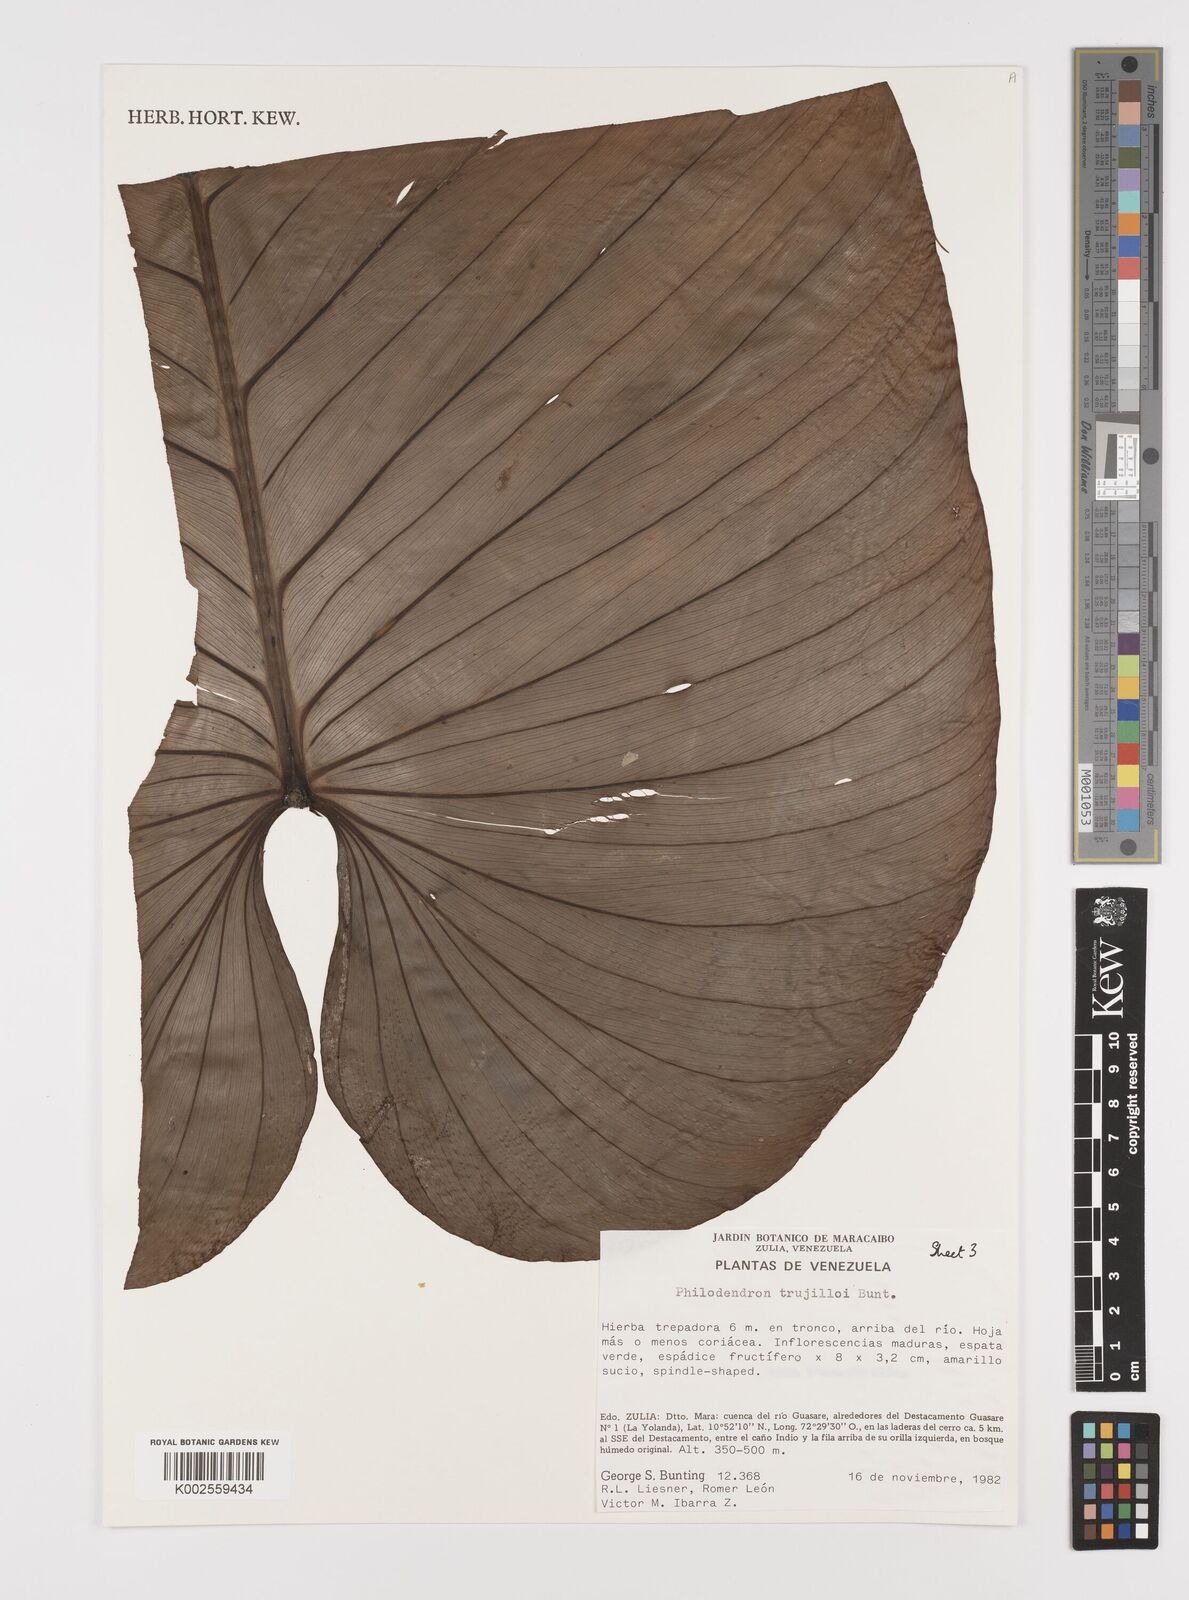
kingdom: Plantae
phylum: Tracheophyta
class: Liliopsida
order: Alismatales
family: Araceae
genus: Philodendron
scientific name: Philodendron trujilloi
